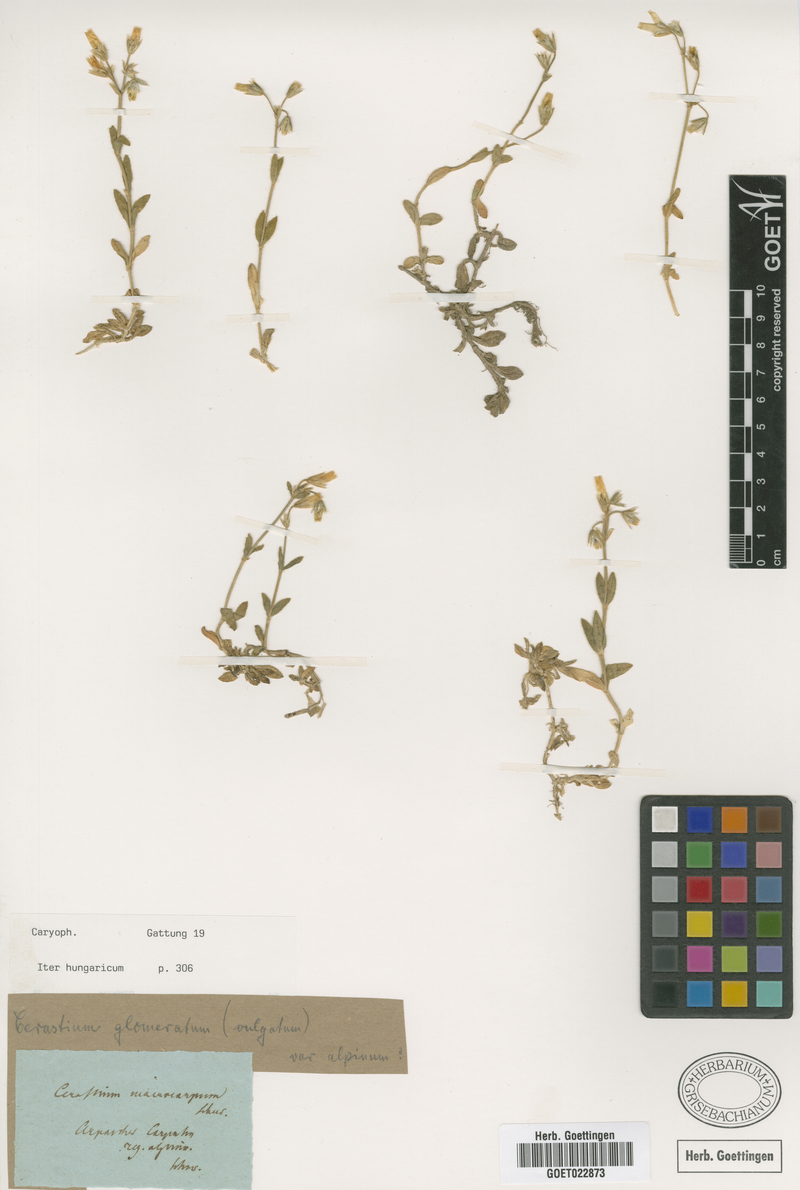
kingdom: Plantae
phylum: Tracheophyta
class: Magnoliopsida
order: Caryophyllales
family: Caryophyllaceae
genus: Cerastium
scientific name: Cerastium lucorum
